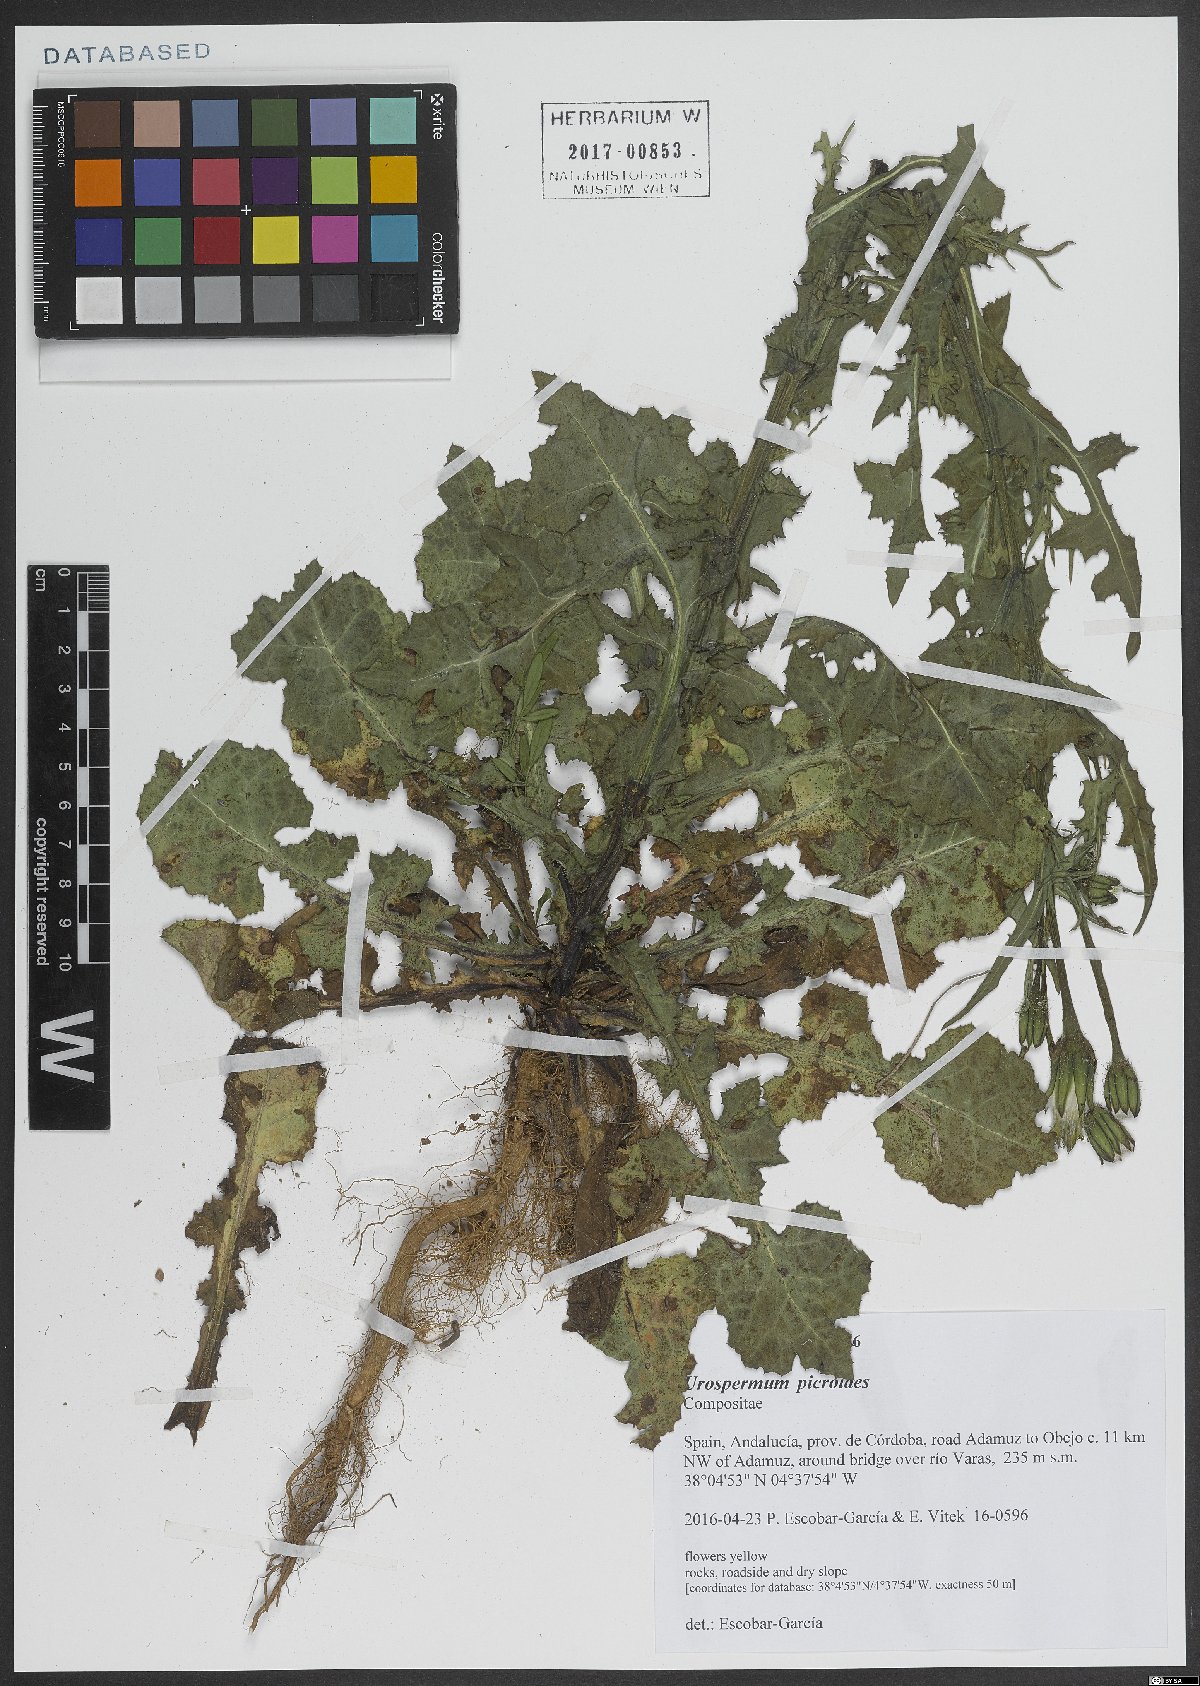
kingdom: Plantae
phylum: Tracheophyta
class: Magnoliopsida
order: Asterales
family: Asteraceae
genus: Urospermum
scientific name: Urospermum picroides
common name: False hawkbit
